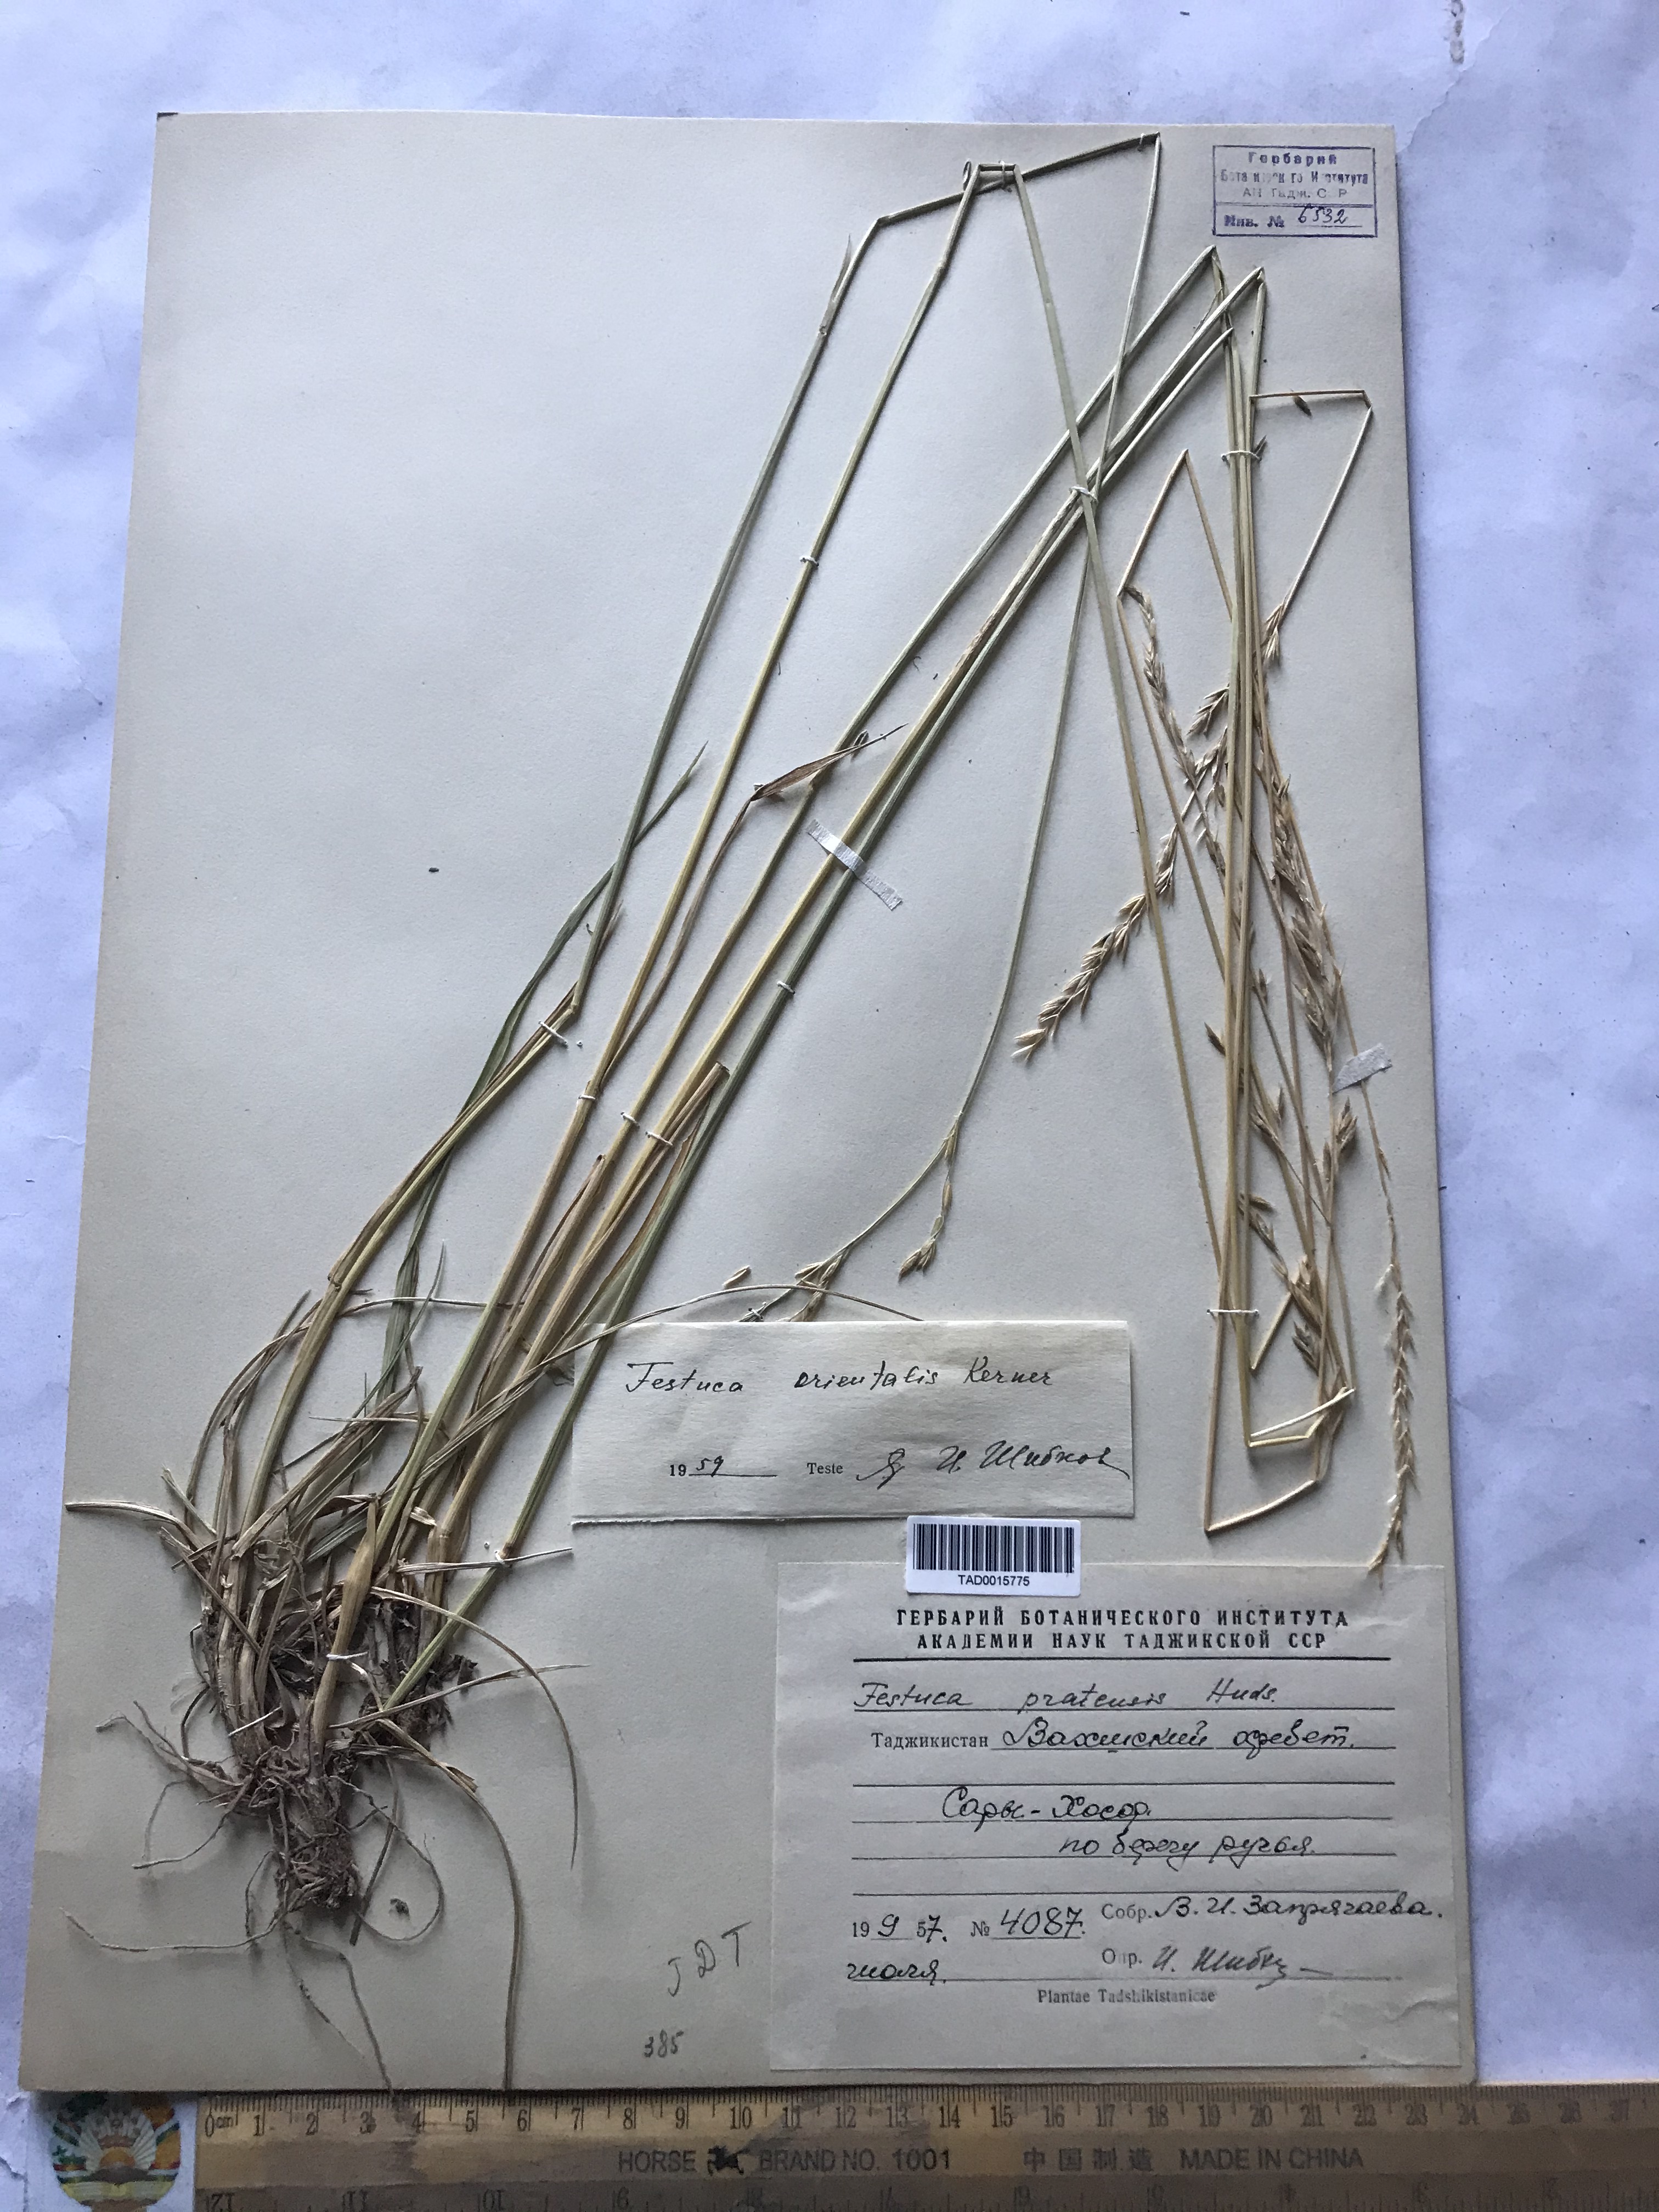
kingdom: Plantae
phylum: Tracheophyta
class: Liliopsida
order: Poales
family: Poaceae
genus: Lolium
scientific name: Lolium arundinaceum
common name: Reed fescue
